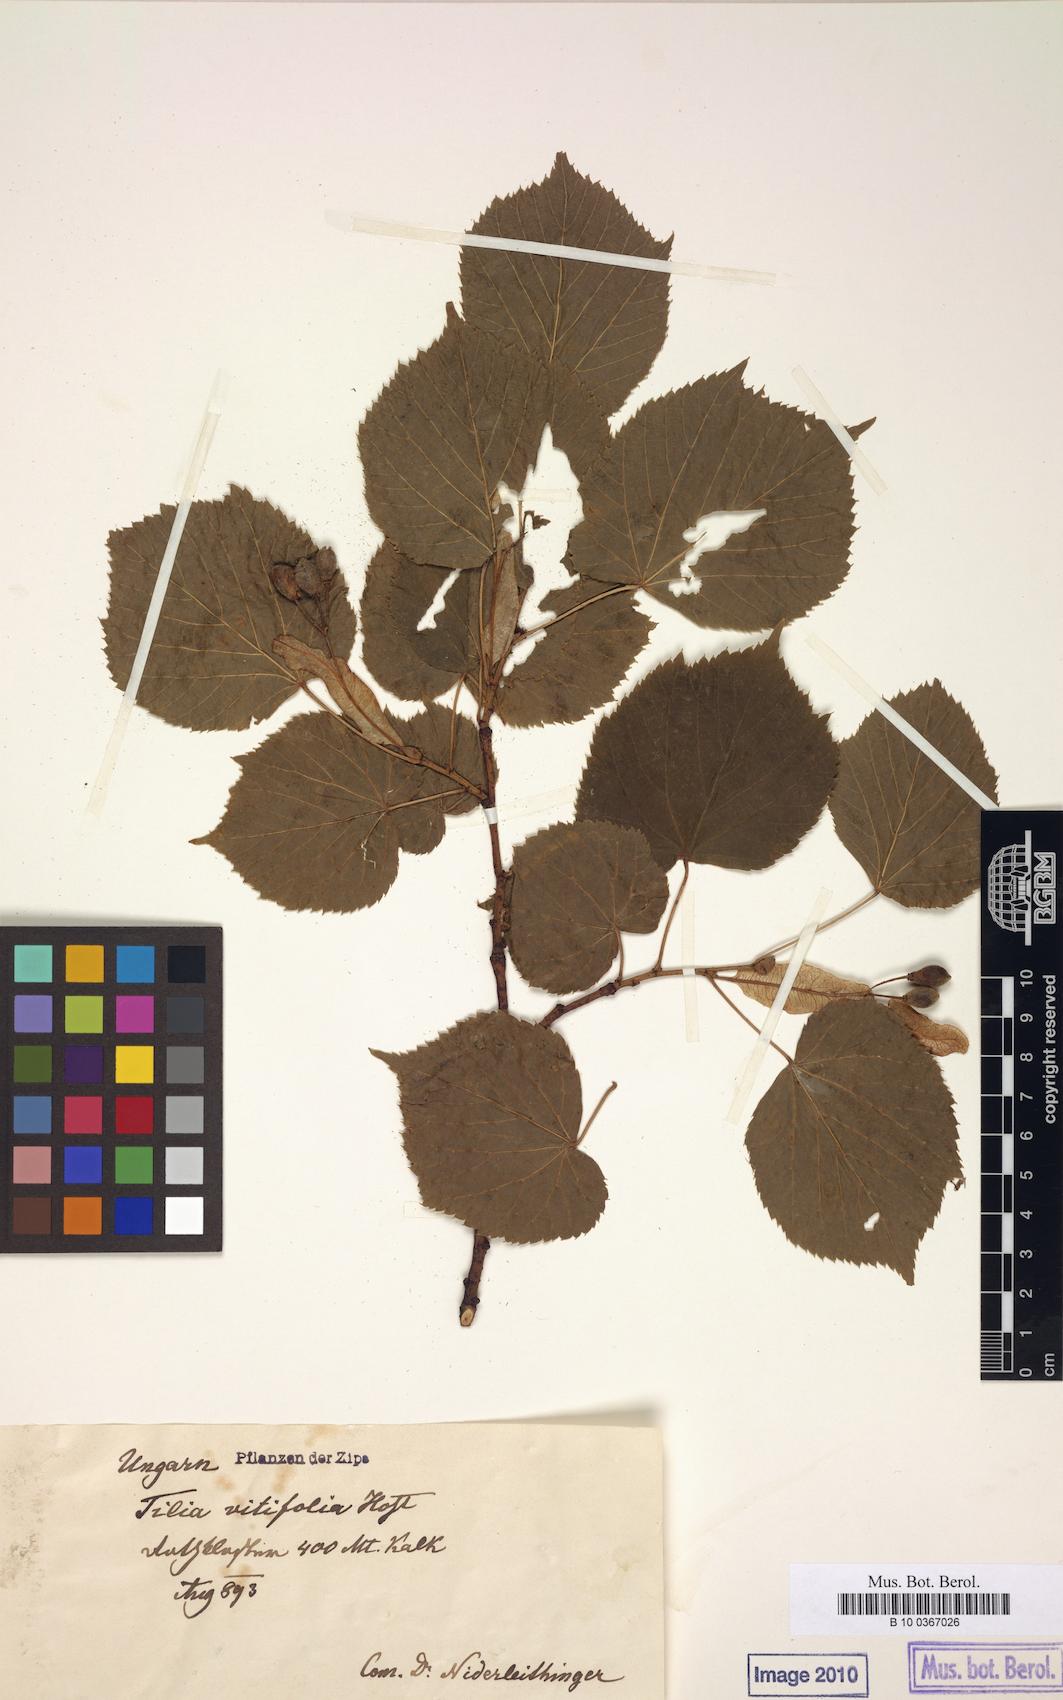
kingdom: Plantae
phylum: Tracheophyta
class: Magnoliopsida
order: Malvales
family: Malvaceae
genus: Tilia
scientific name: Tilia platyphyllos
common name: Large-leaved lime
